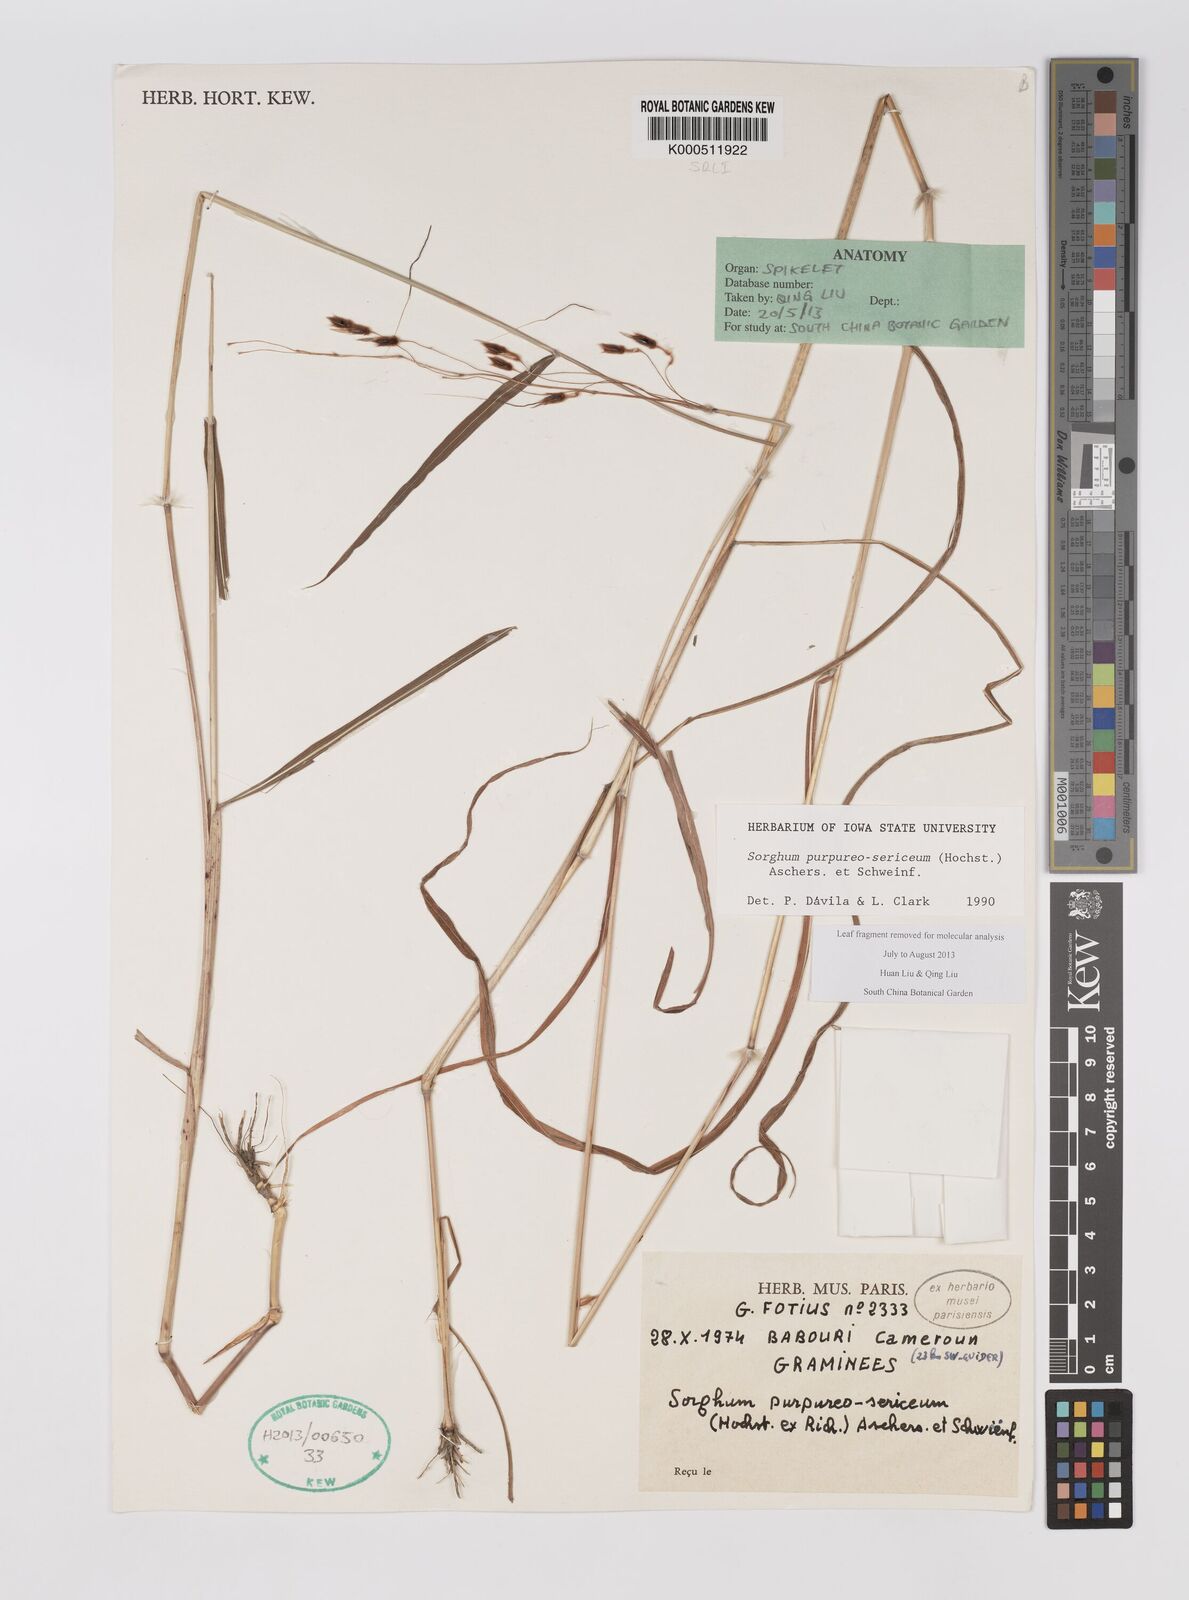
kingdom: Plantae
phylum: Tracheophyta
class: Liliopsida
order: Poales
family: Poaceae
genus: Sarga
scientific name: Sarga purpureosericea
